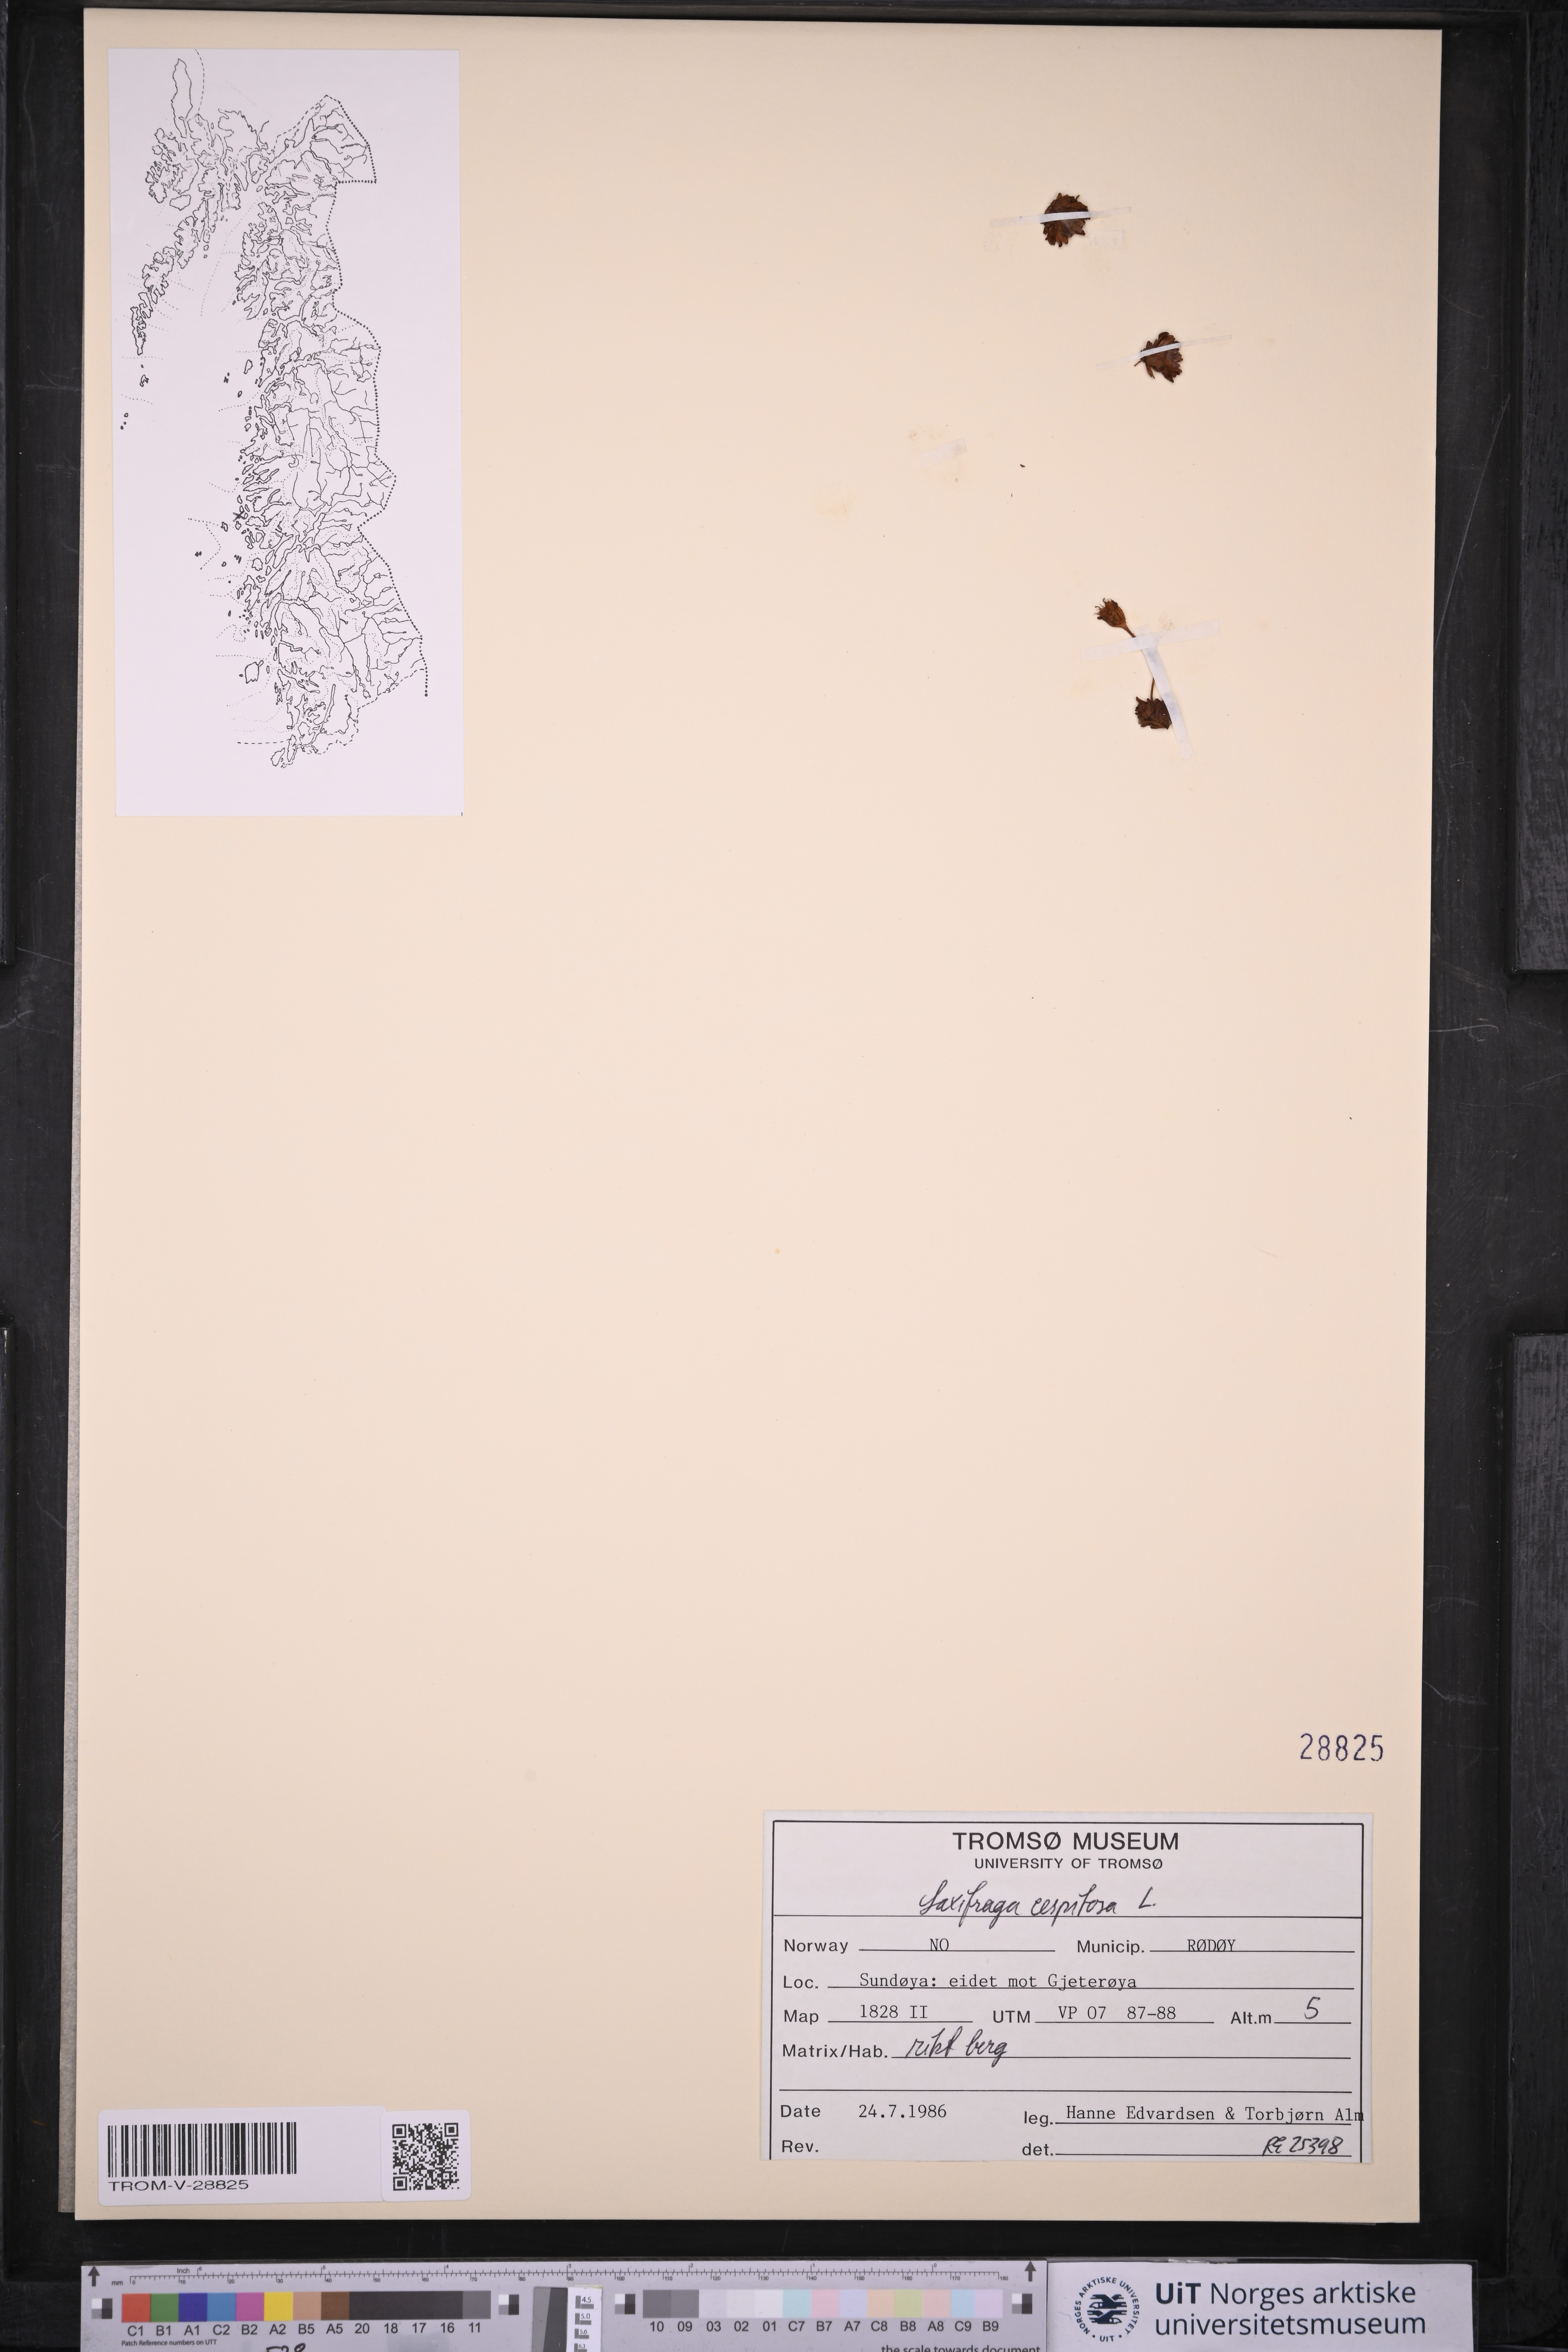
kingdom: Plantae
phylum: Tracheophyta
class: Magnoliopsida
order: Saxifragales
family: Saxifragaceae
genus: Saxifraga
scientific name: Saxifraga cespitosa
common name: Tufted saxifrage
